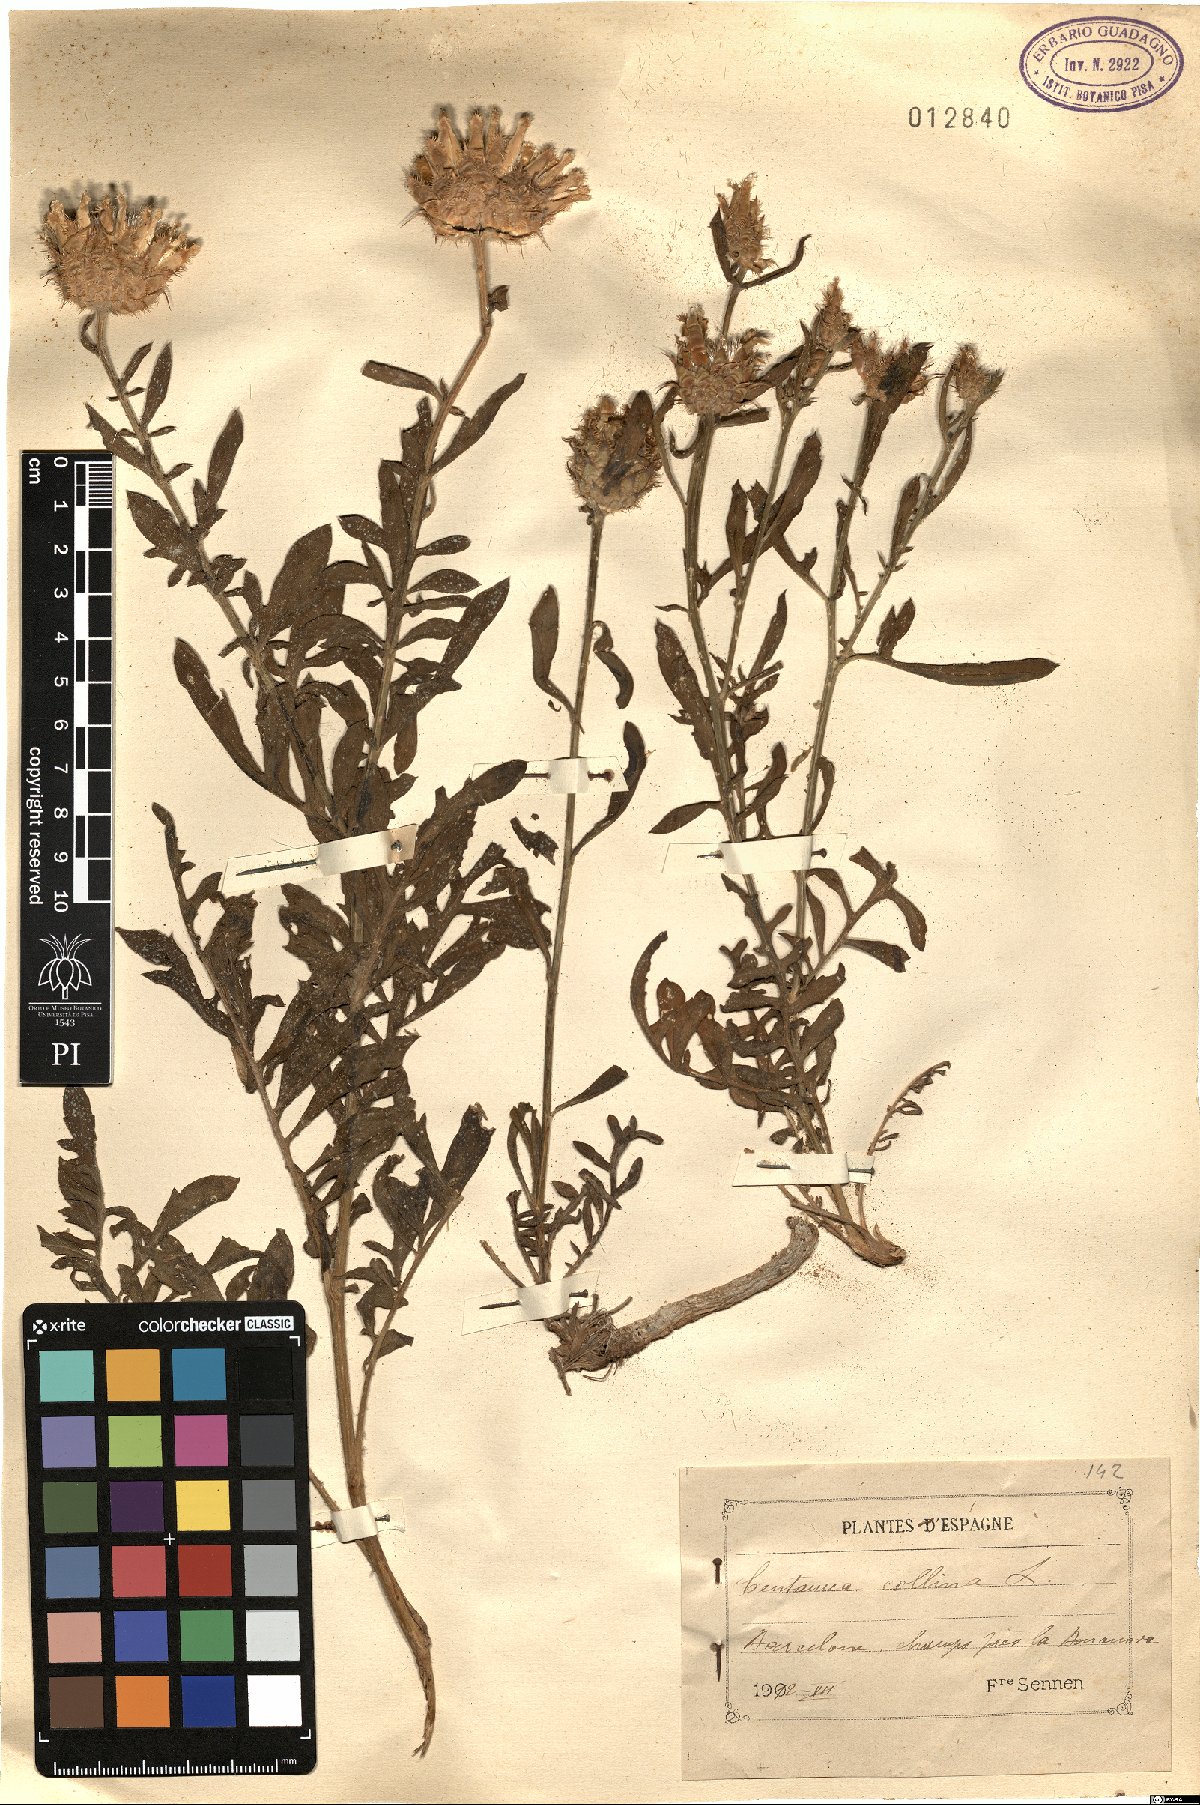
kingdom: Plantae
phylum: Tracheophyta
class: Magnoliopsida
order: Asterales
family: Asteraceae
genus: Centaurea
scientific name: Centaurea collina
